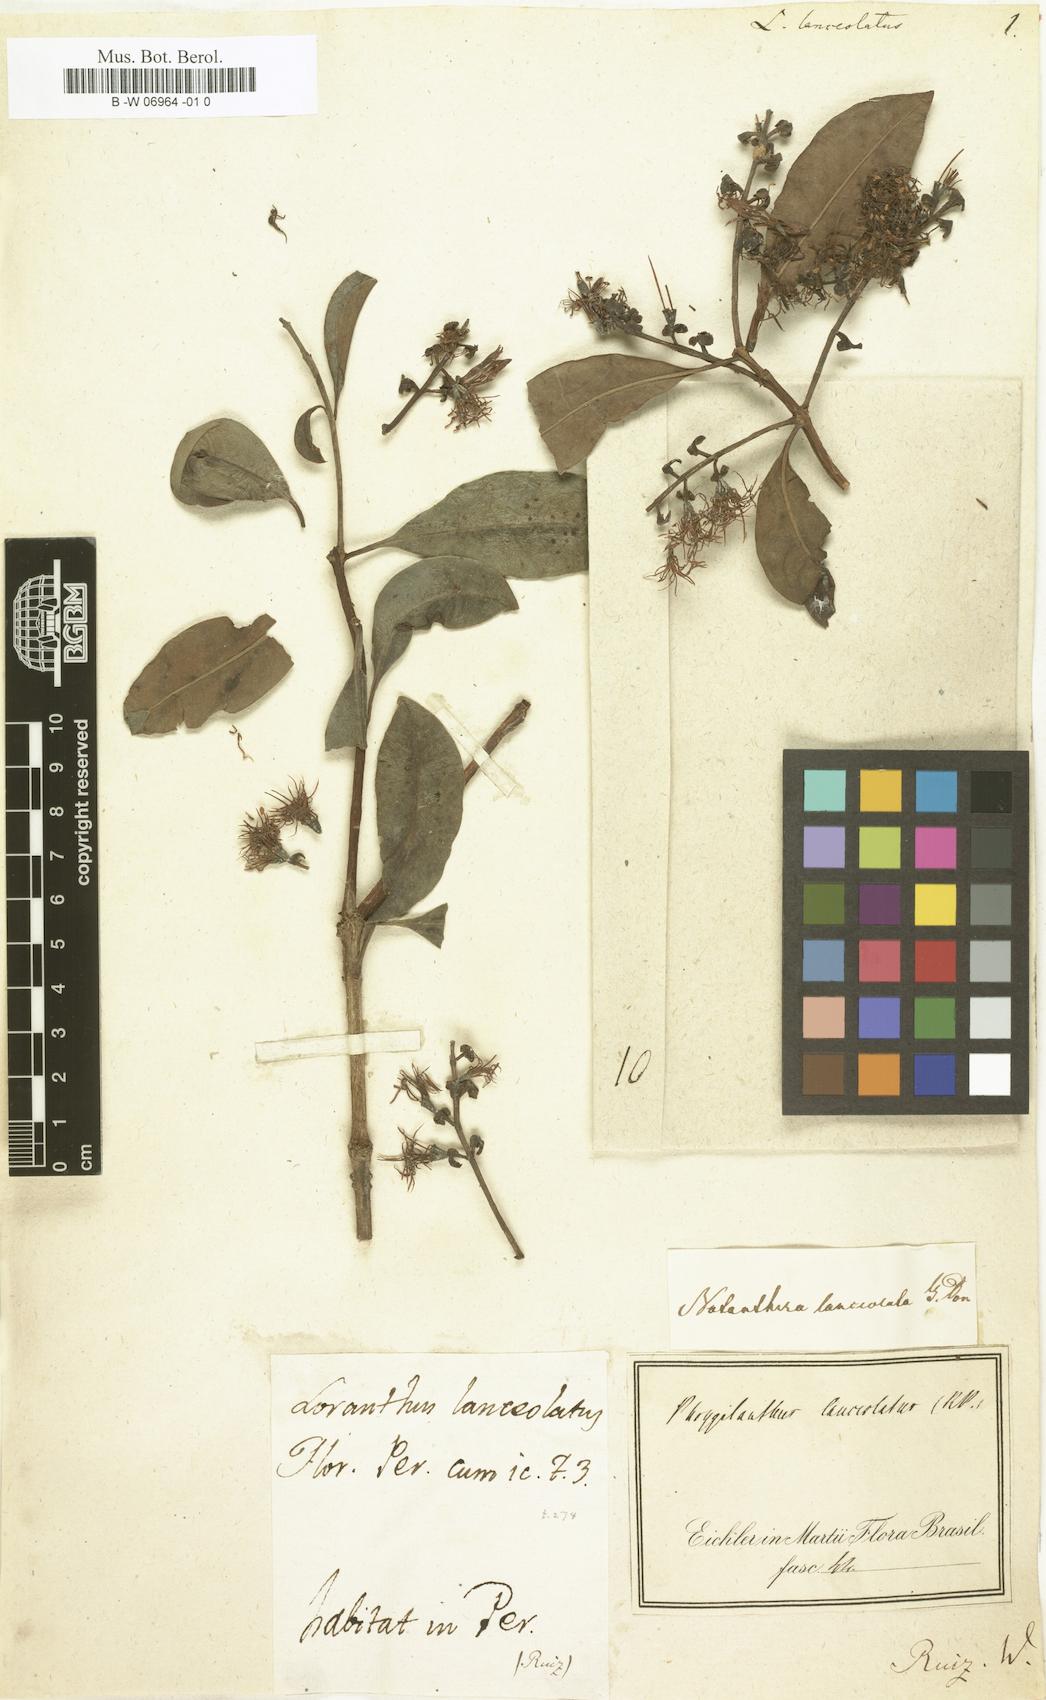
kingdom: Plantae
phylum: Tracheophyta
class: Magnoliopsida
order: Santalales
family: Loranthaceae
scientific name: Loranthaceae
